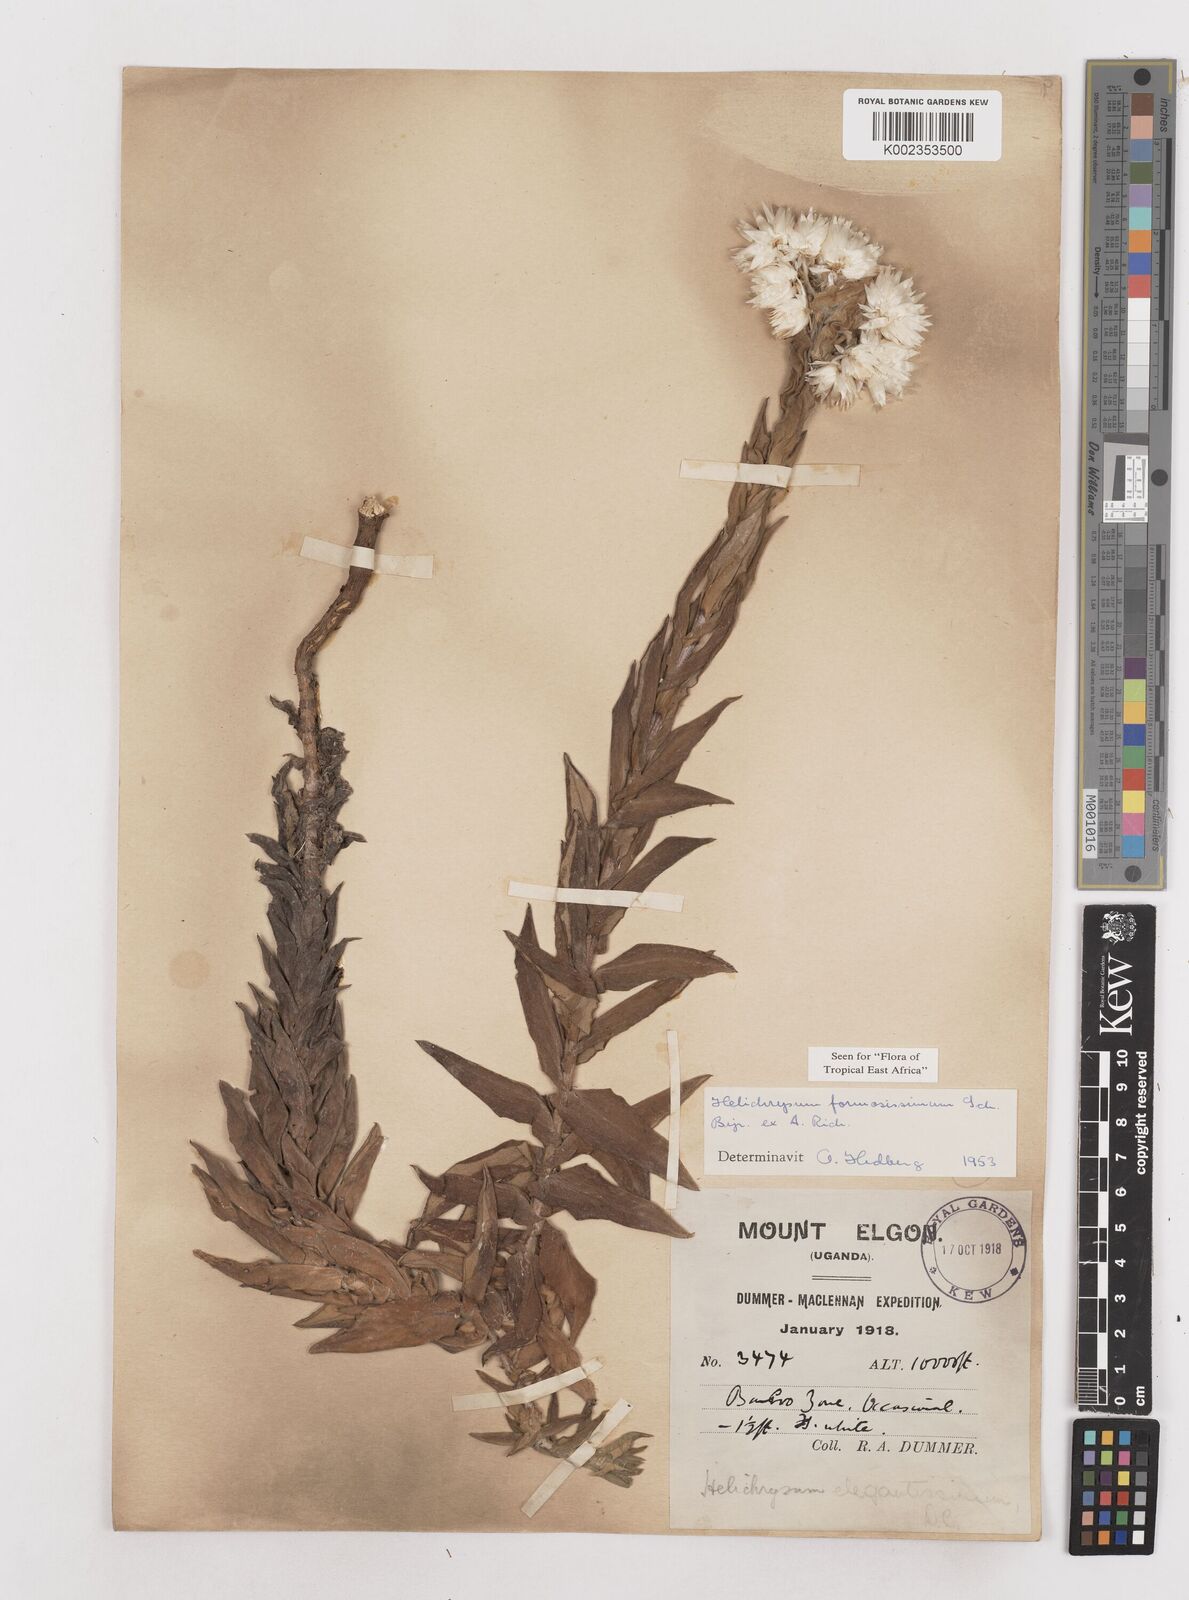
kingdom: Plantae
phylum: Tracheophyta
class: Magnoliopsida
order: Asterales
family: Asteraceae
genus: Helichrysum
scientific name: Helichrysum formosissimum
